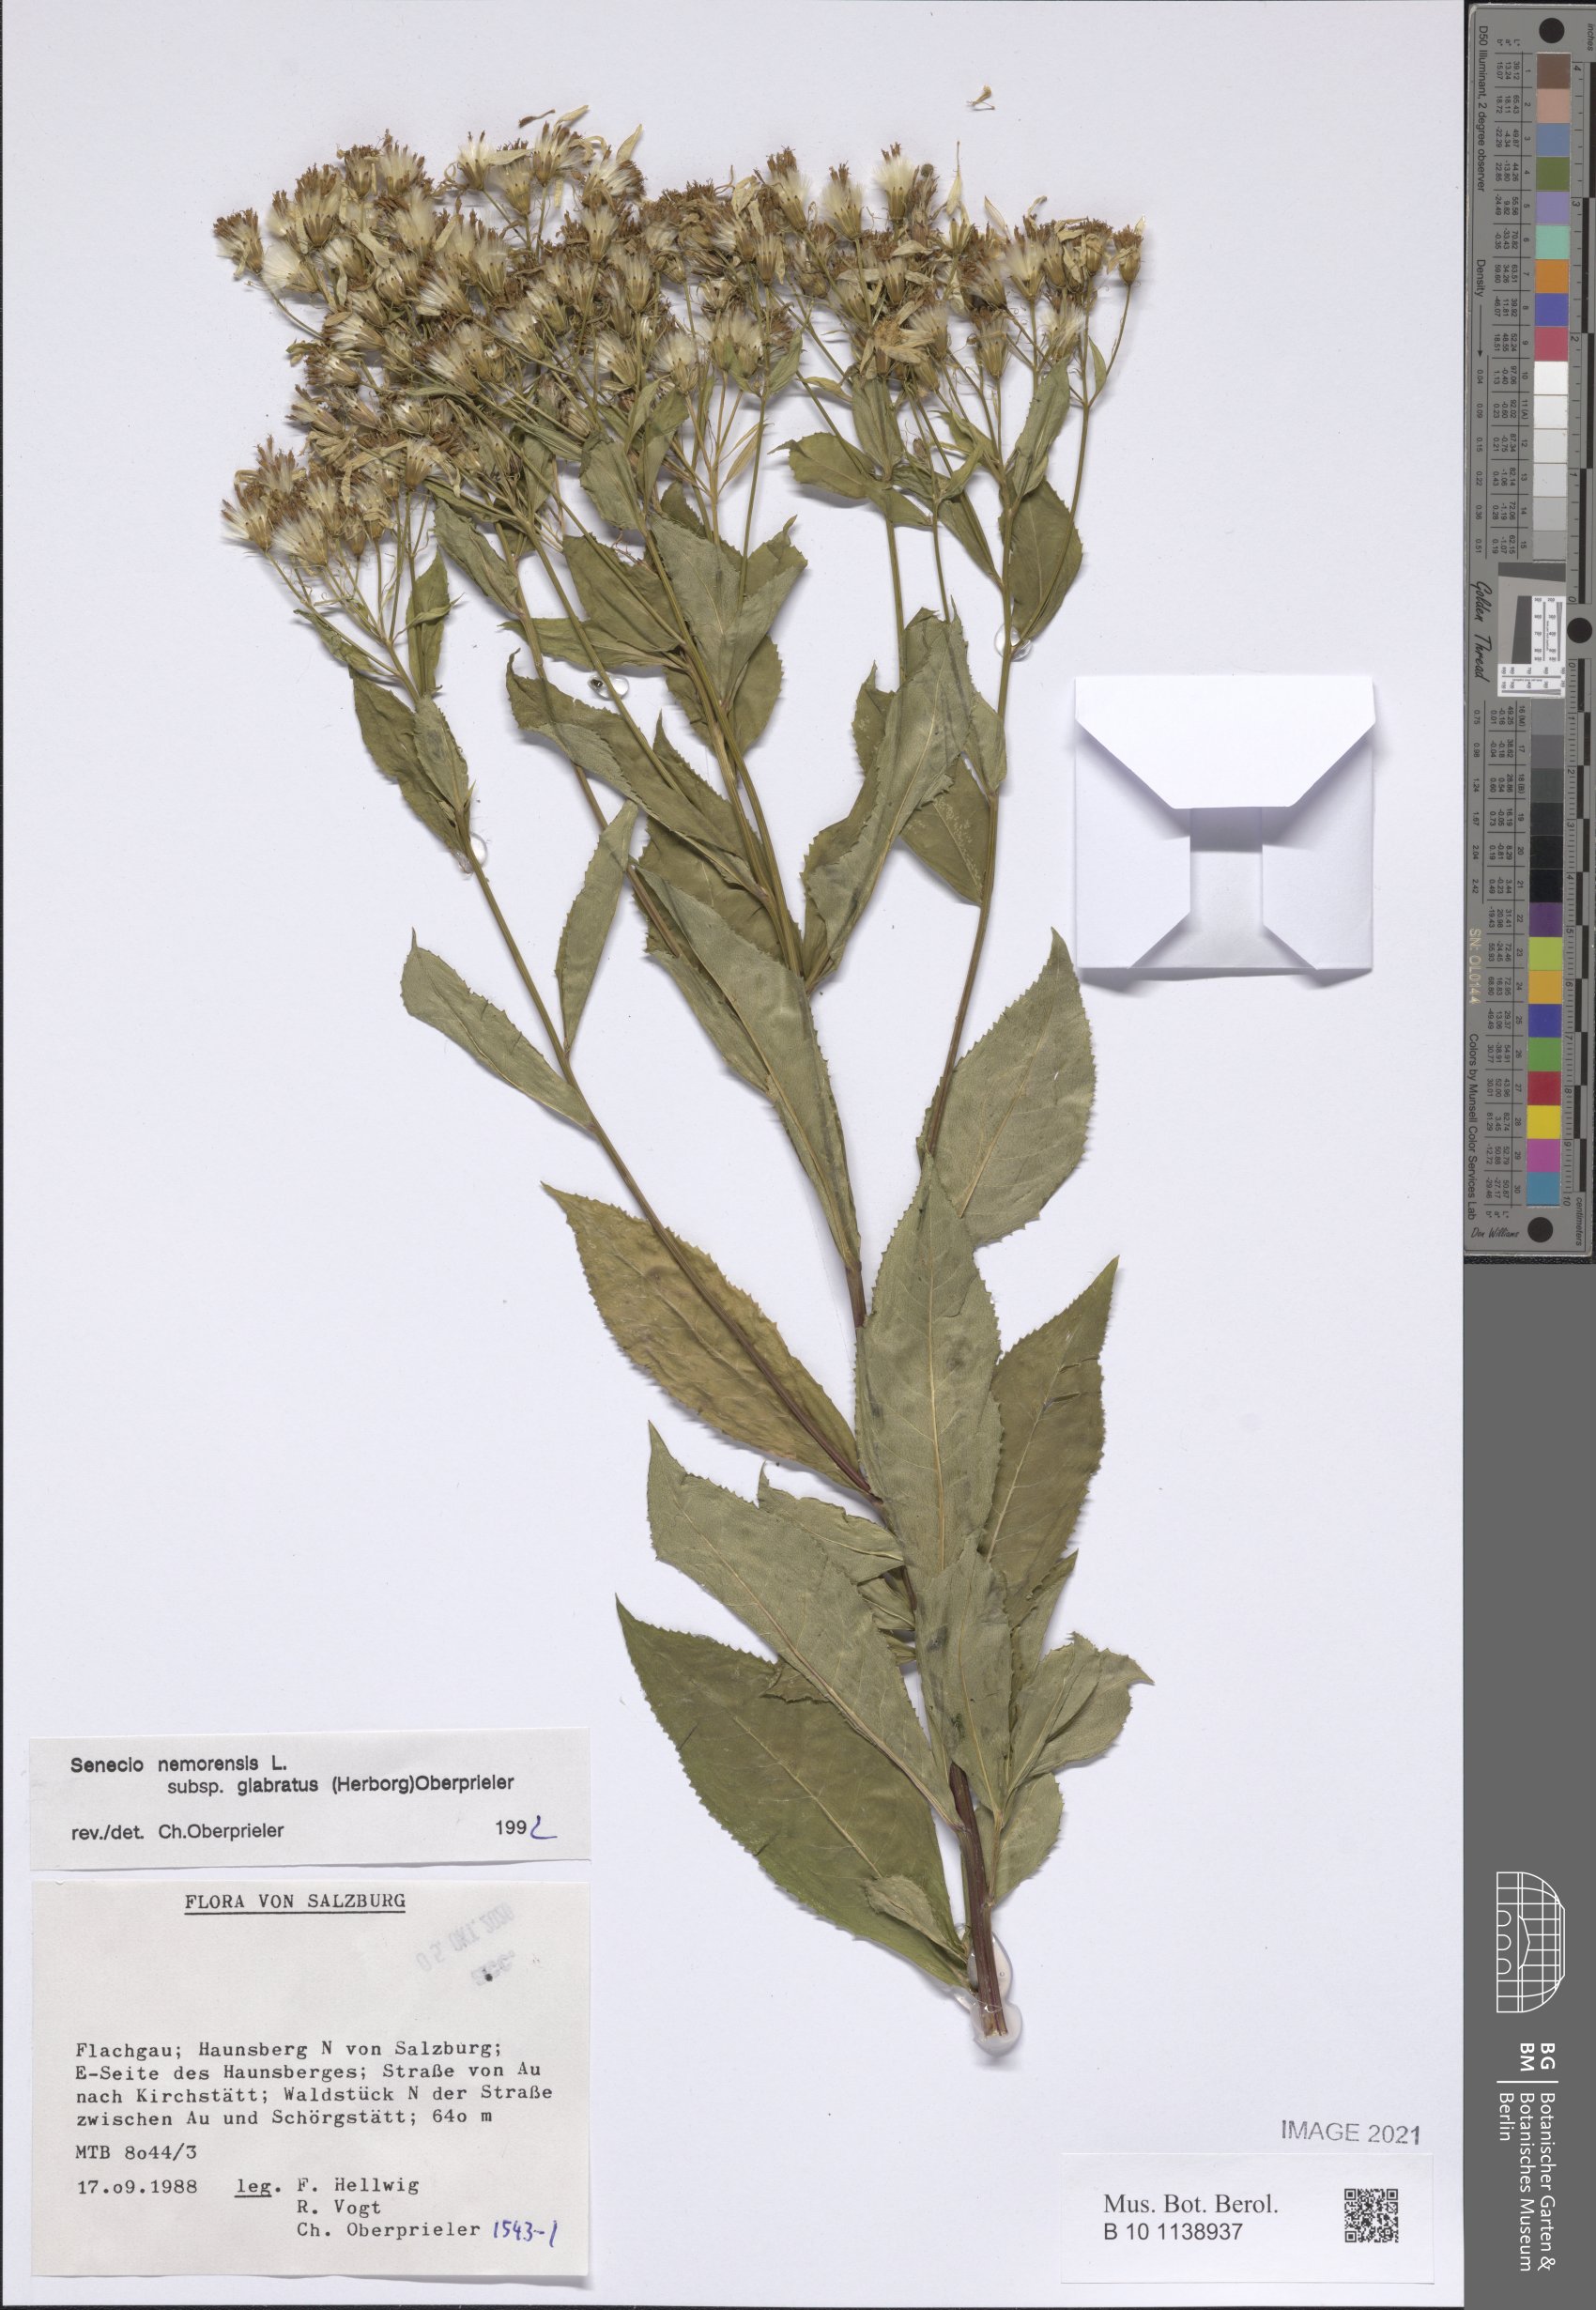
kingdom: Plantae
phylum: Tracheophyta
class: Magnoliopsida
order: Asterales
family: Asteraceae
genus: Senecio
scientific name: Senecio germanicus
